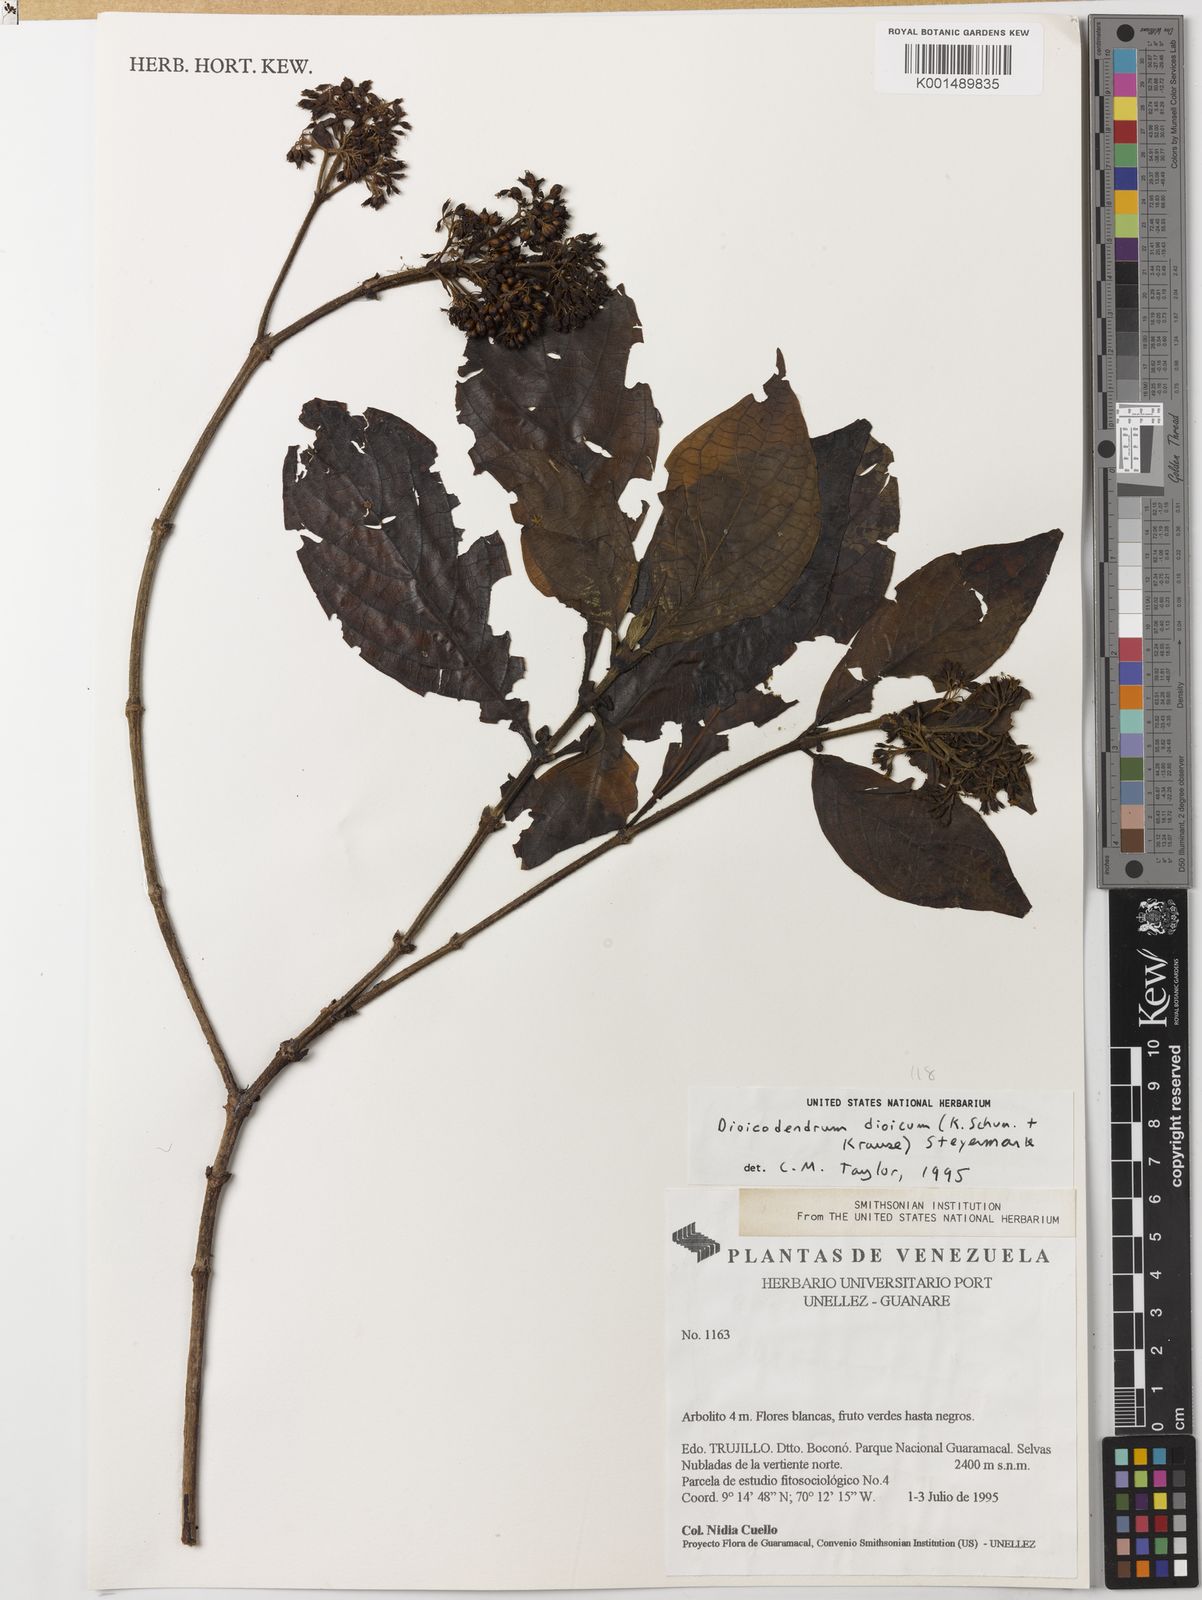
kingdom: Plantae
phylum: Tracheophyta
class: Magnoliopsida
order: Gentianales
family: Rubiaceae
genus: Dioicodendron
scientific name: Dioicodendron dioicum
